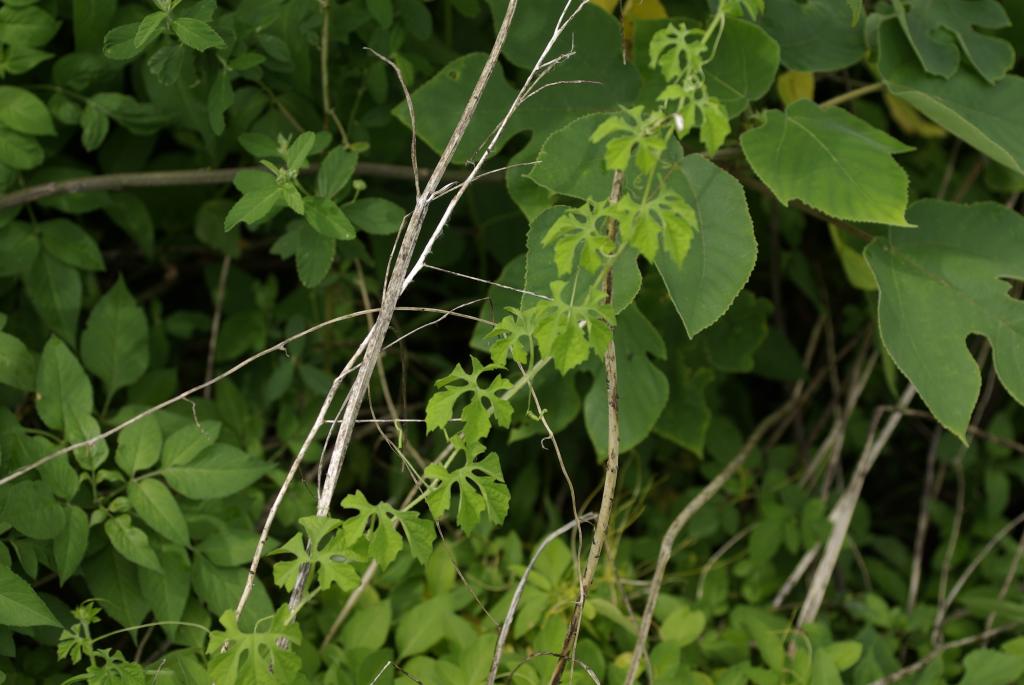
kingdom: Plantae
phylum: Tracheophyta
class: Magnoliopsida
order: Cucurbitales
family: Cucurbitaceae
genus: Momordica
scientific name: Momordica charantia
